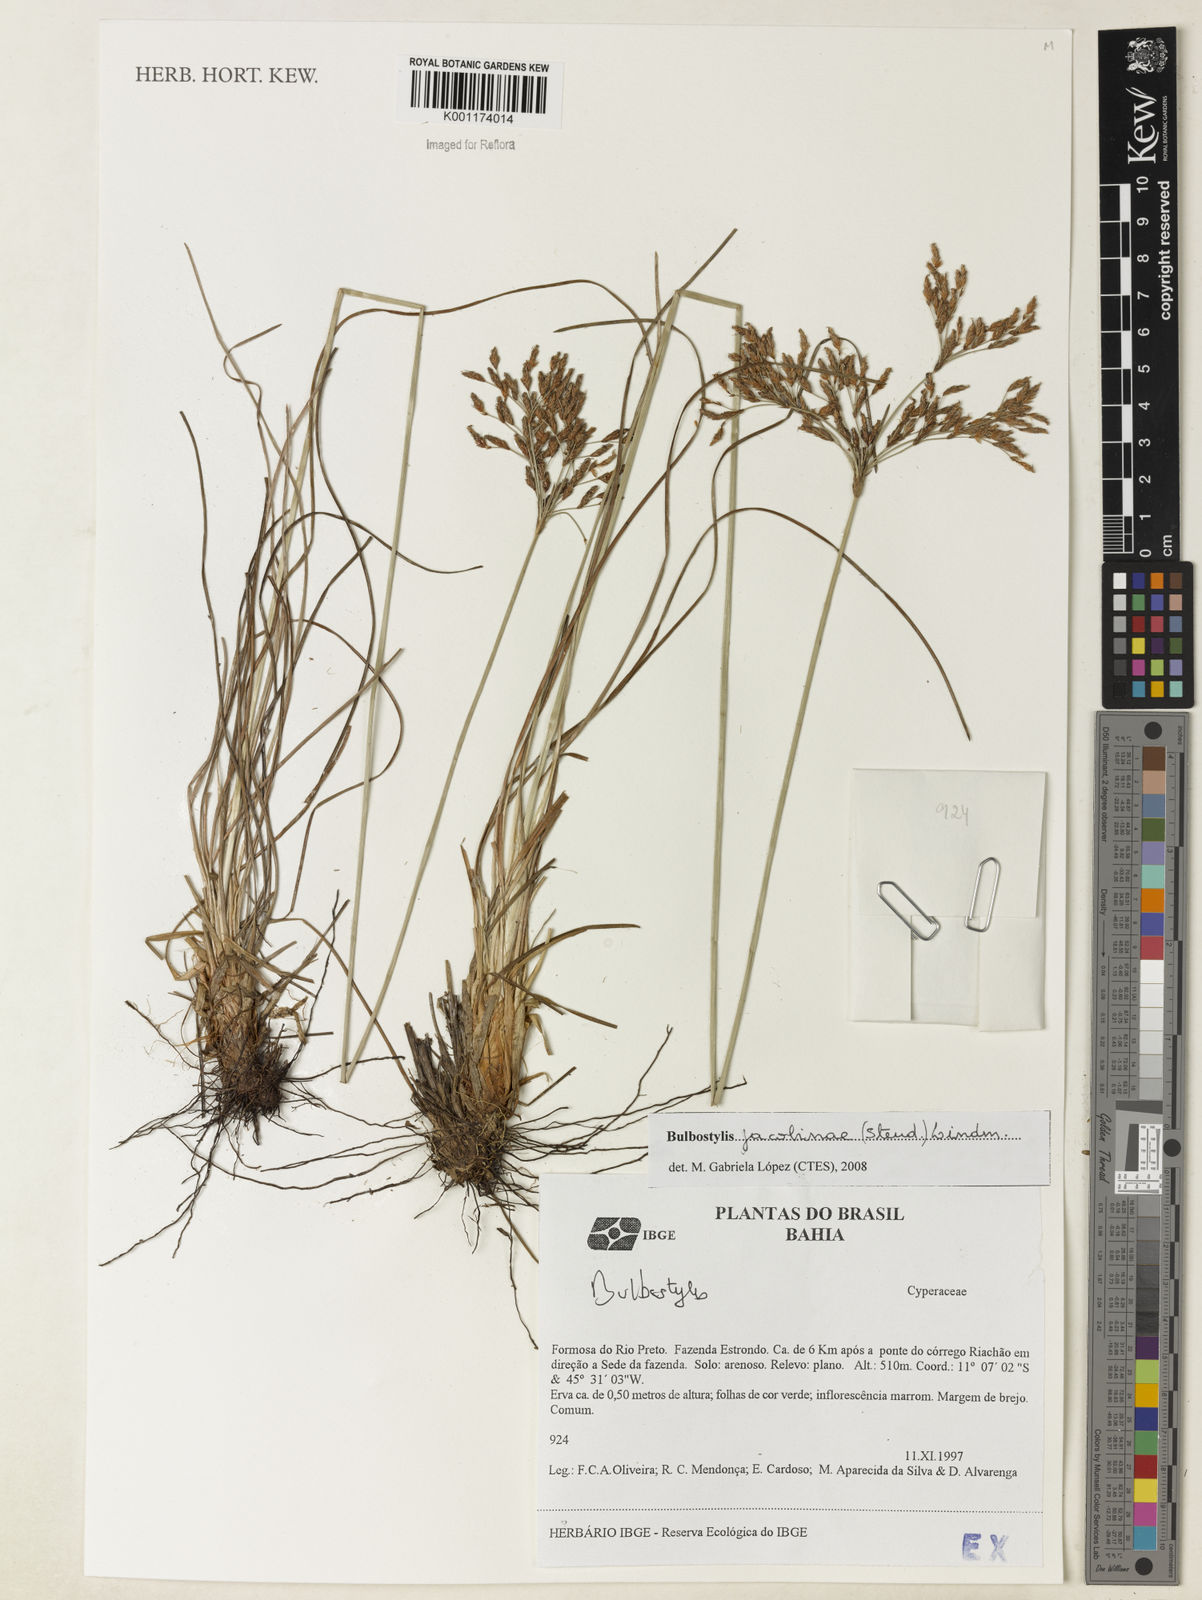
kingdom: Plantae
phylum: Tracheophyta
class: Liliopsida
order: Poales
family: Cyperaceae
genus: Bulbostylis
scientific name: Bulbostylis jacobinae
